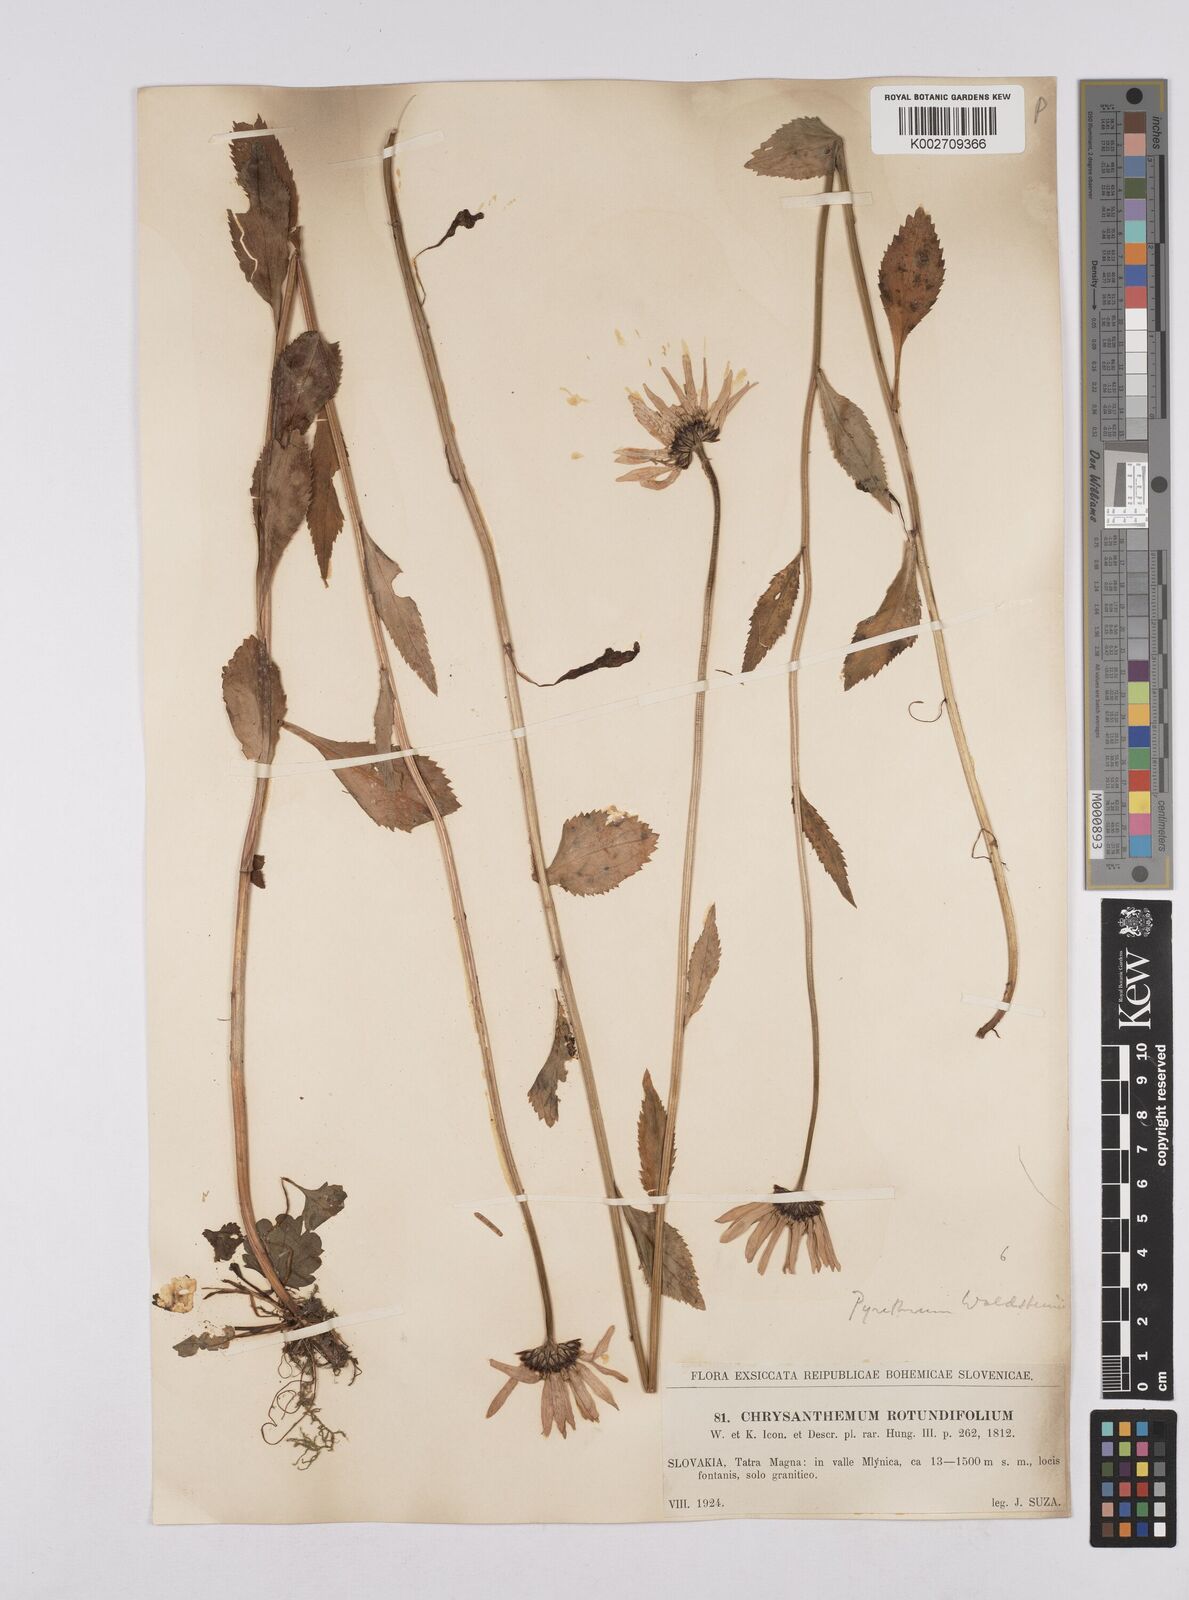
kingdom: Plantae
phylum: Tracheophyta
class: Magnoliopsida
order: Asterales
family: Asteraceae
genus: Leucanthemum
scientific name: Leucanthemum rotundifolium
